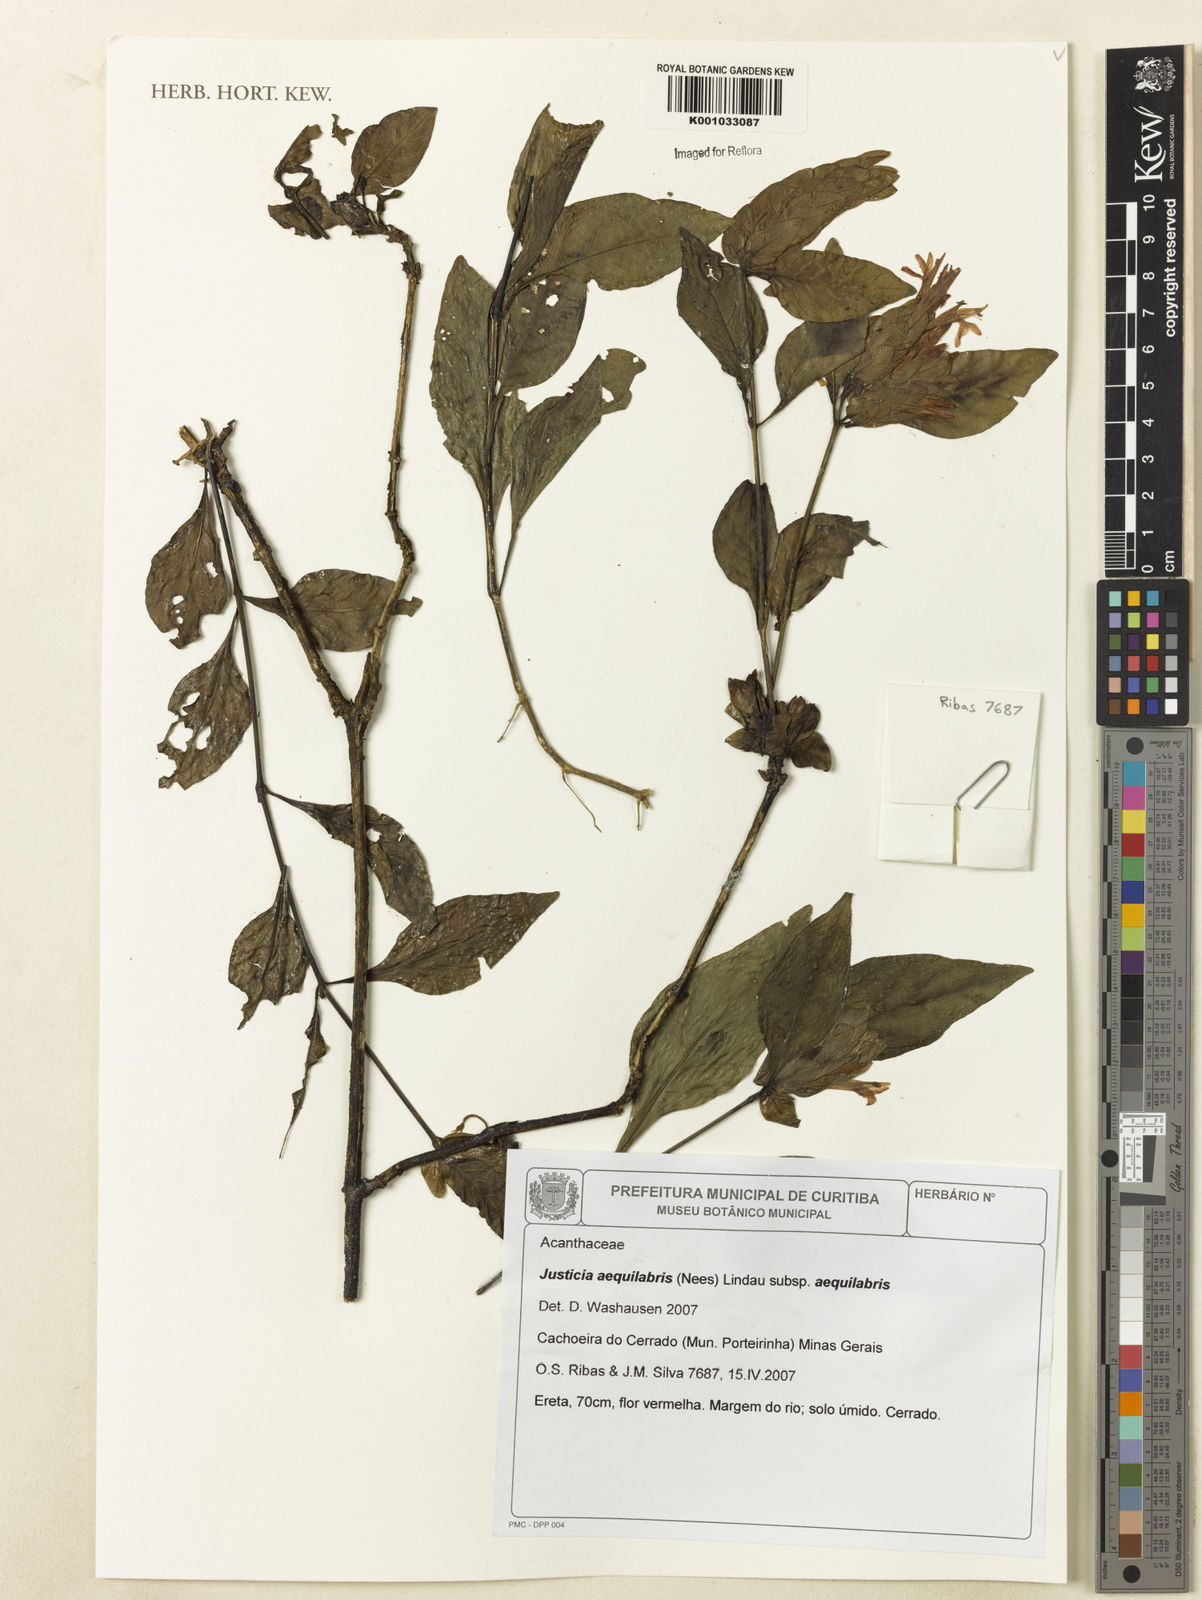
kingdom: Plantae
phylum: Tracheophyta
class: Magnoliopsida
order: Lamiales
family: Acanthaceae
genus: Justicia
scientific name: Justicia aequalis
